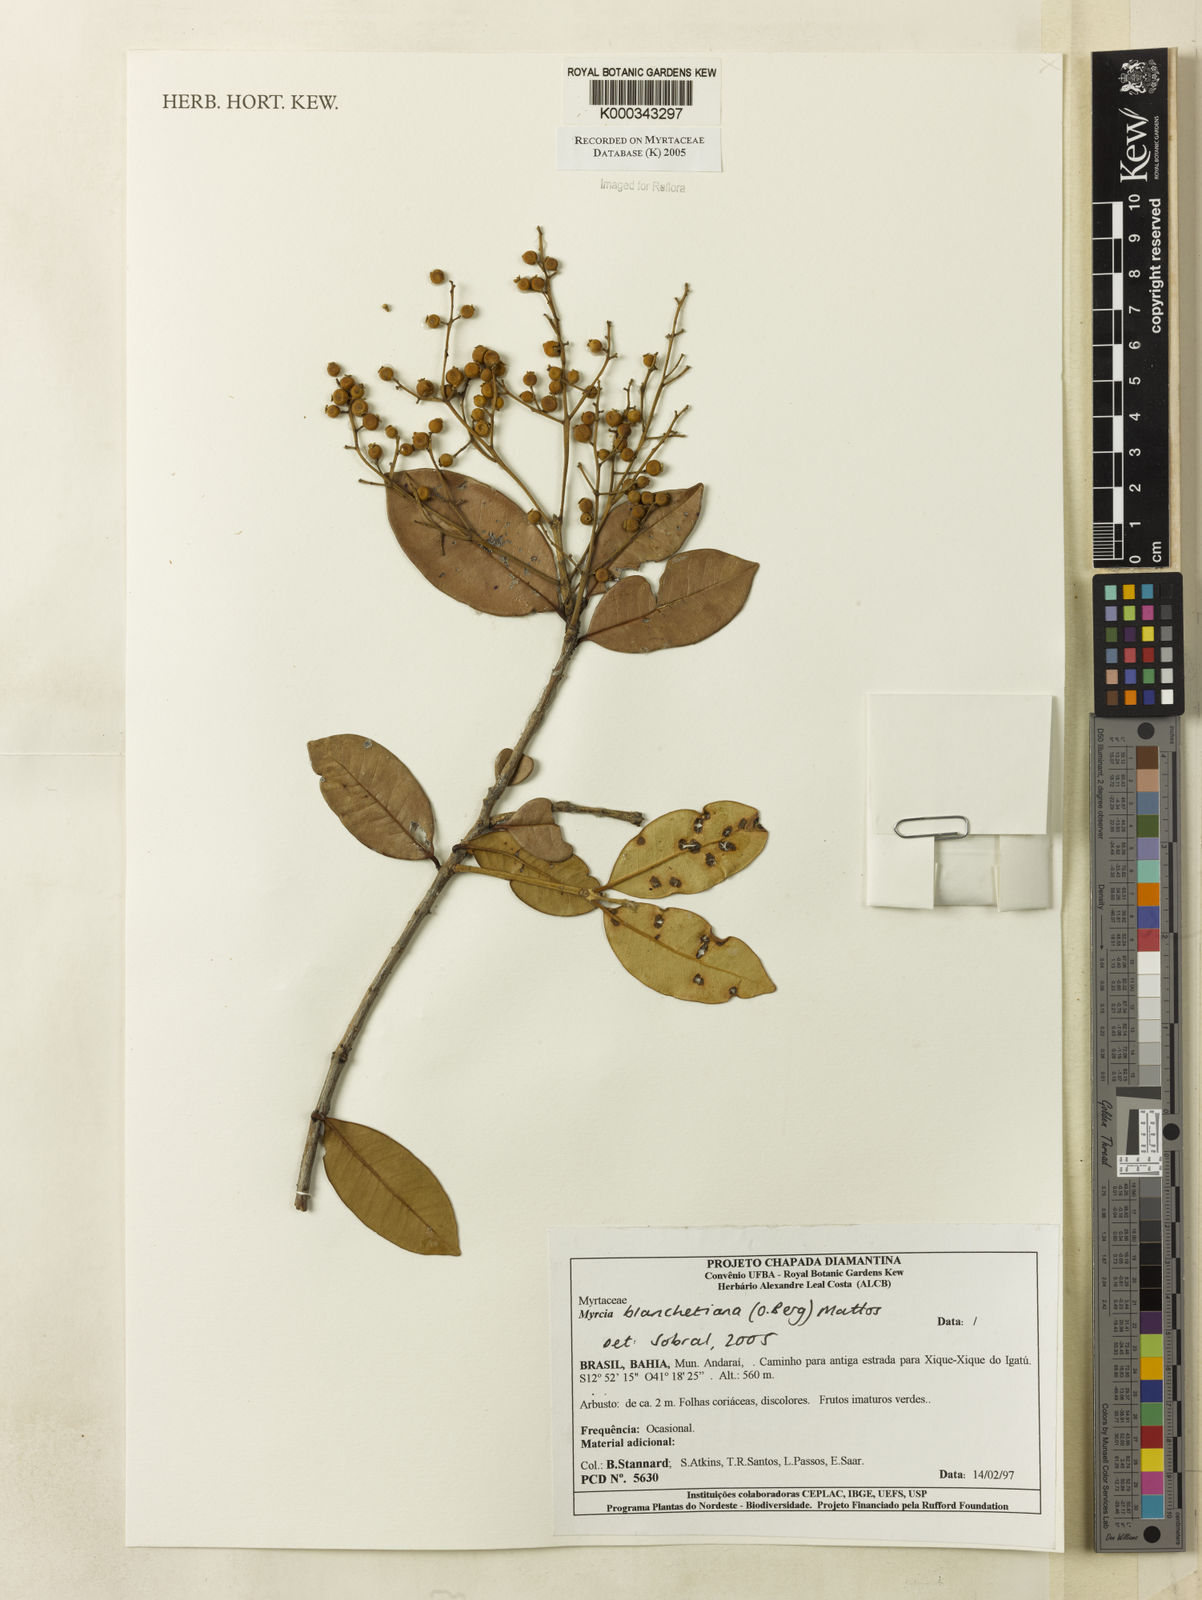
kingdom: Plantae
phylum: Tracheophyta
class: Magnoliopsida
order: Myrtales
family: Myrtaceae
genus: Myrcia
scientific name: Myrcia blanchetiana
